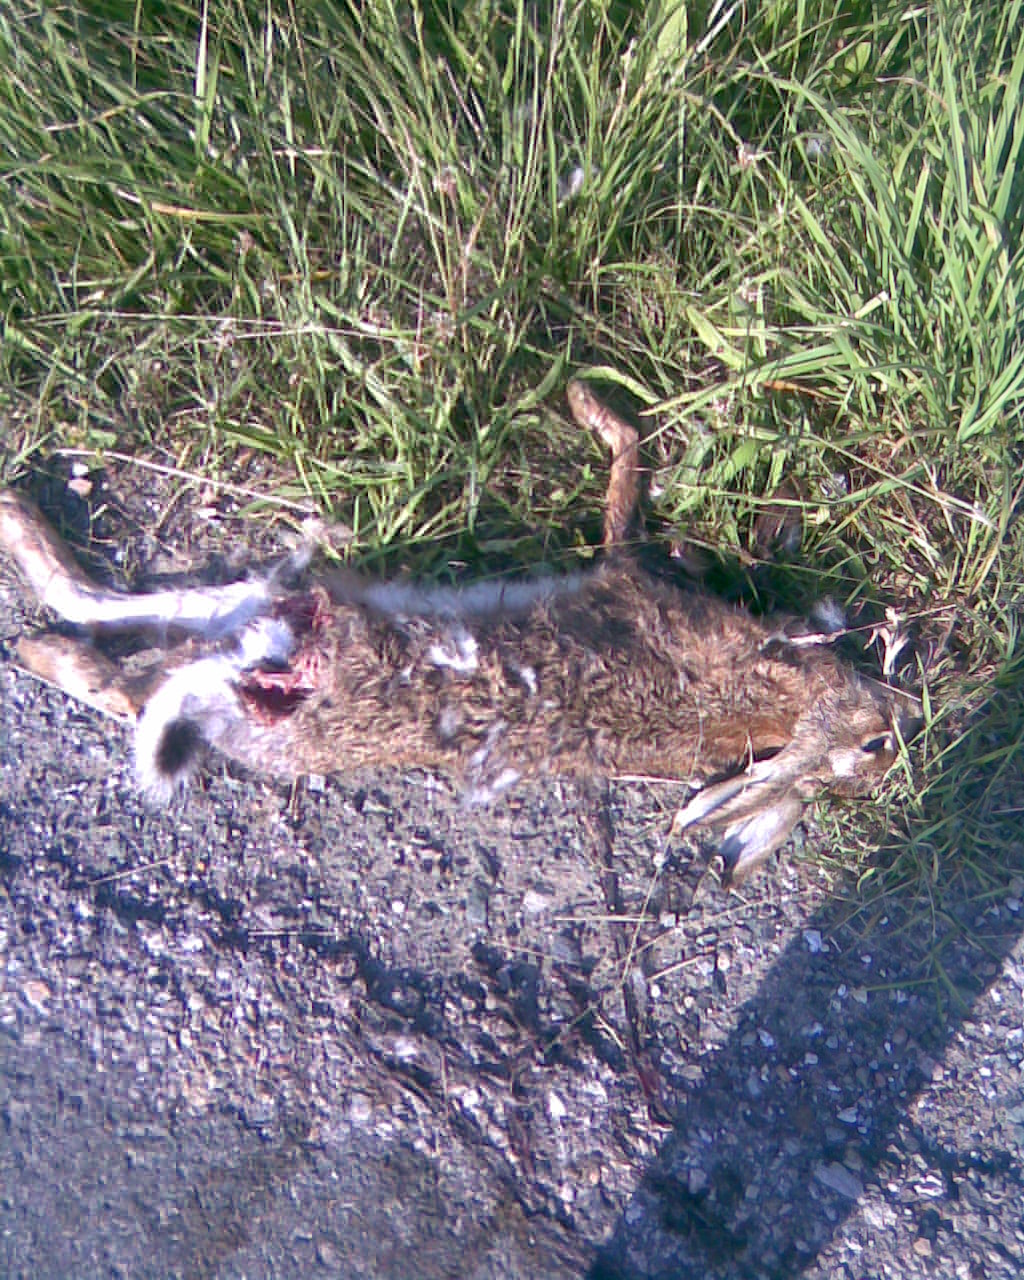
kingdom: Animalia
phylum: Chordata
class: Mammalia
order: Lagomorpha
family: Leporidae
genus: Lepus
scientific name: Lepus europaeus
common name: European hare
